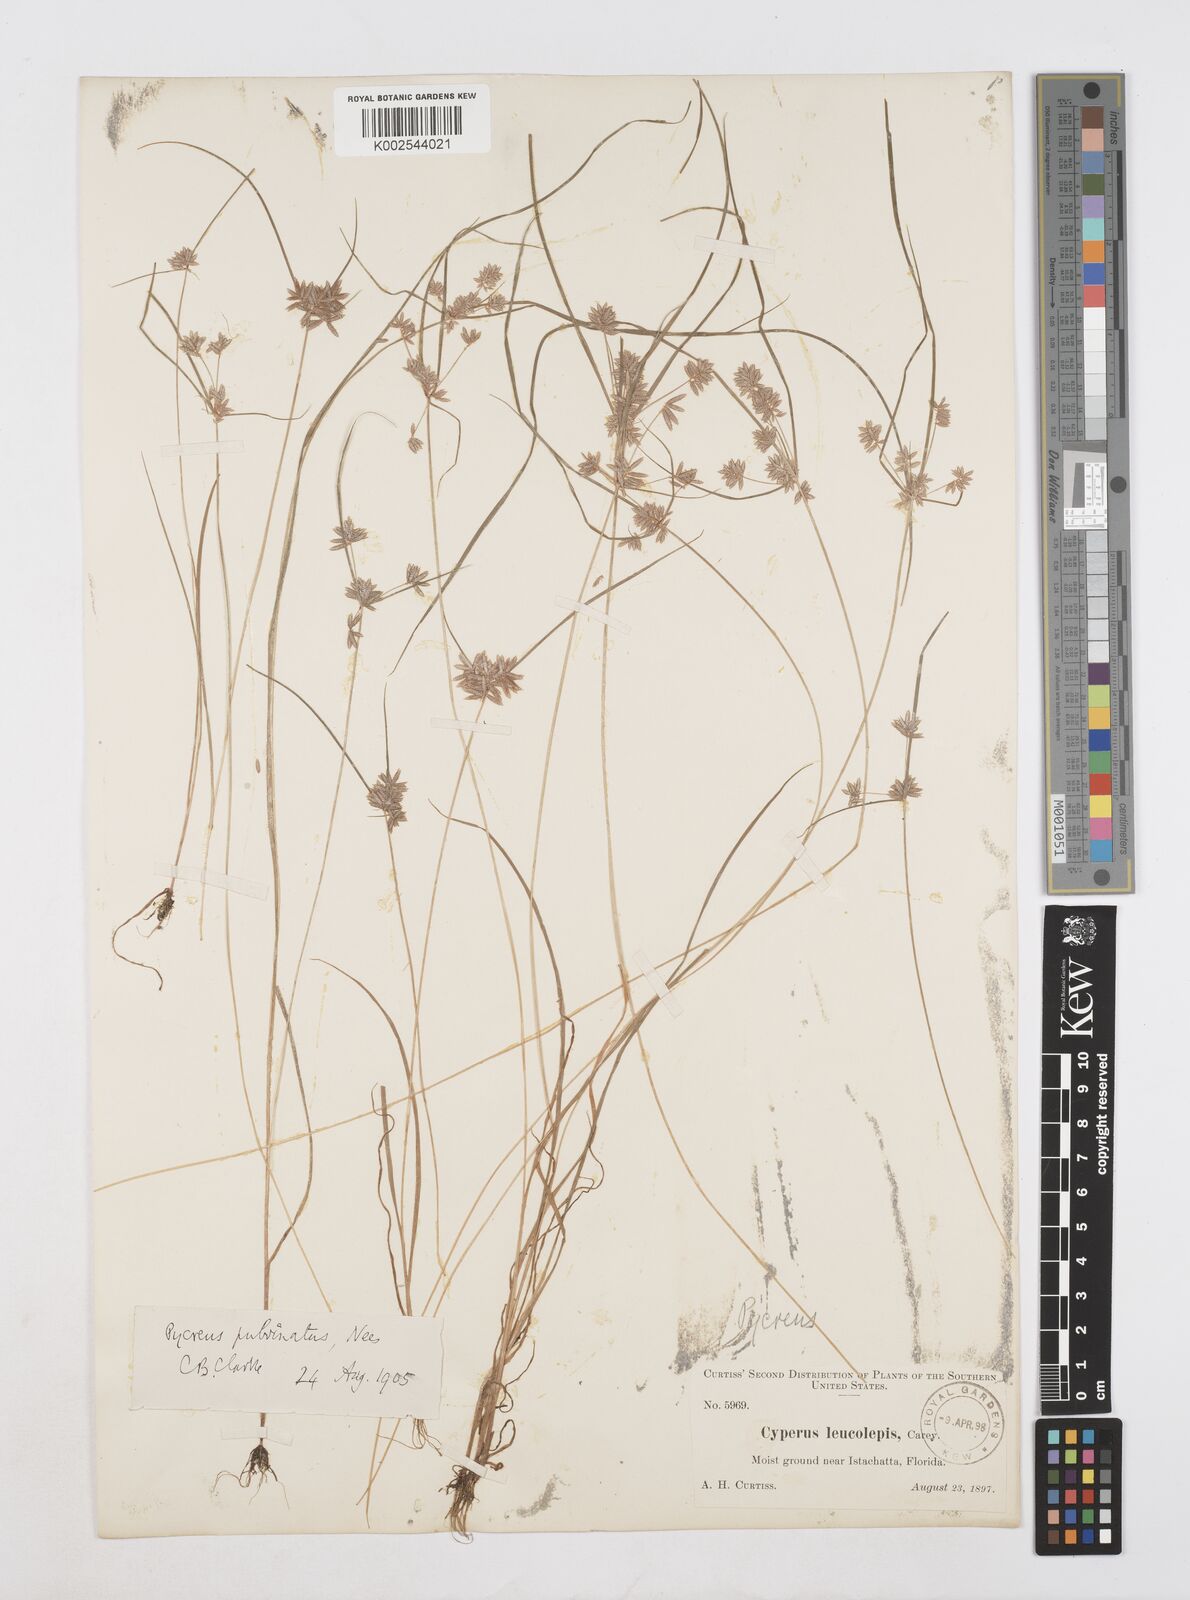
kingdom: Plantae
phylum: Tracheophyta
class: Liliopsida
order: Poales
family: Cyperaceae
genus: Cyperus
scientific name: Cyperus pumilus
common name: Low flatsedge
